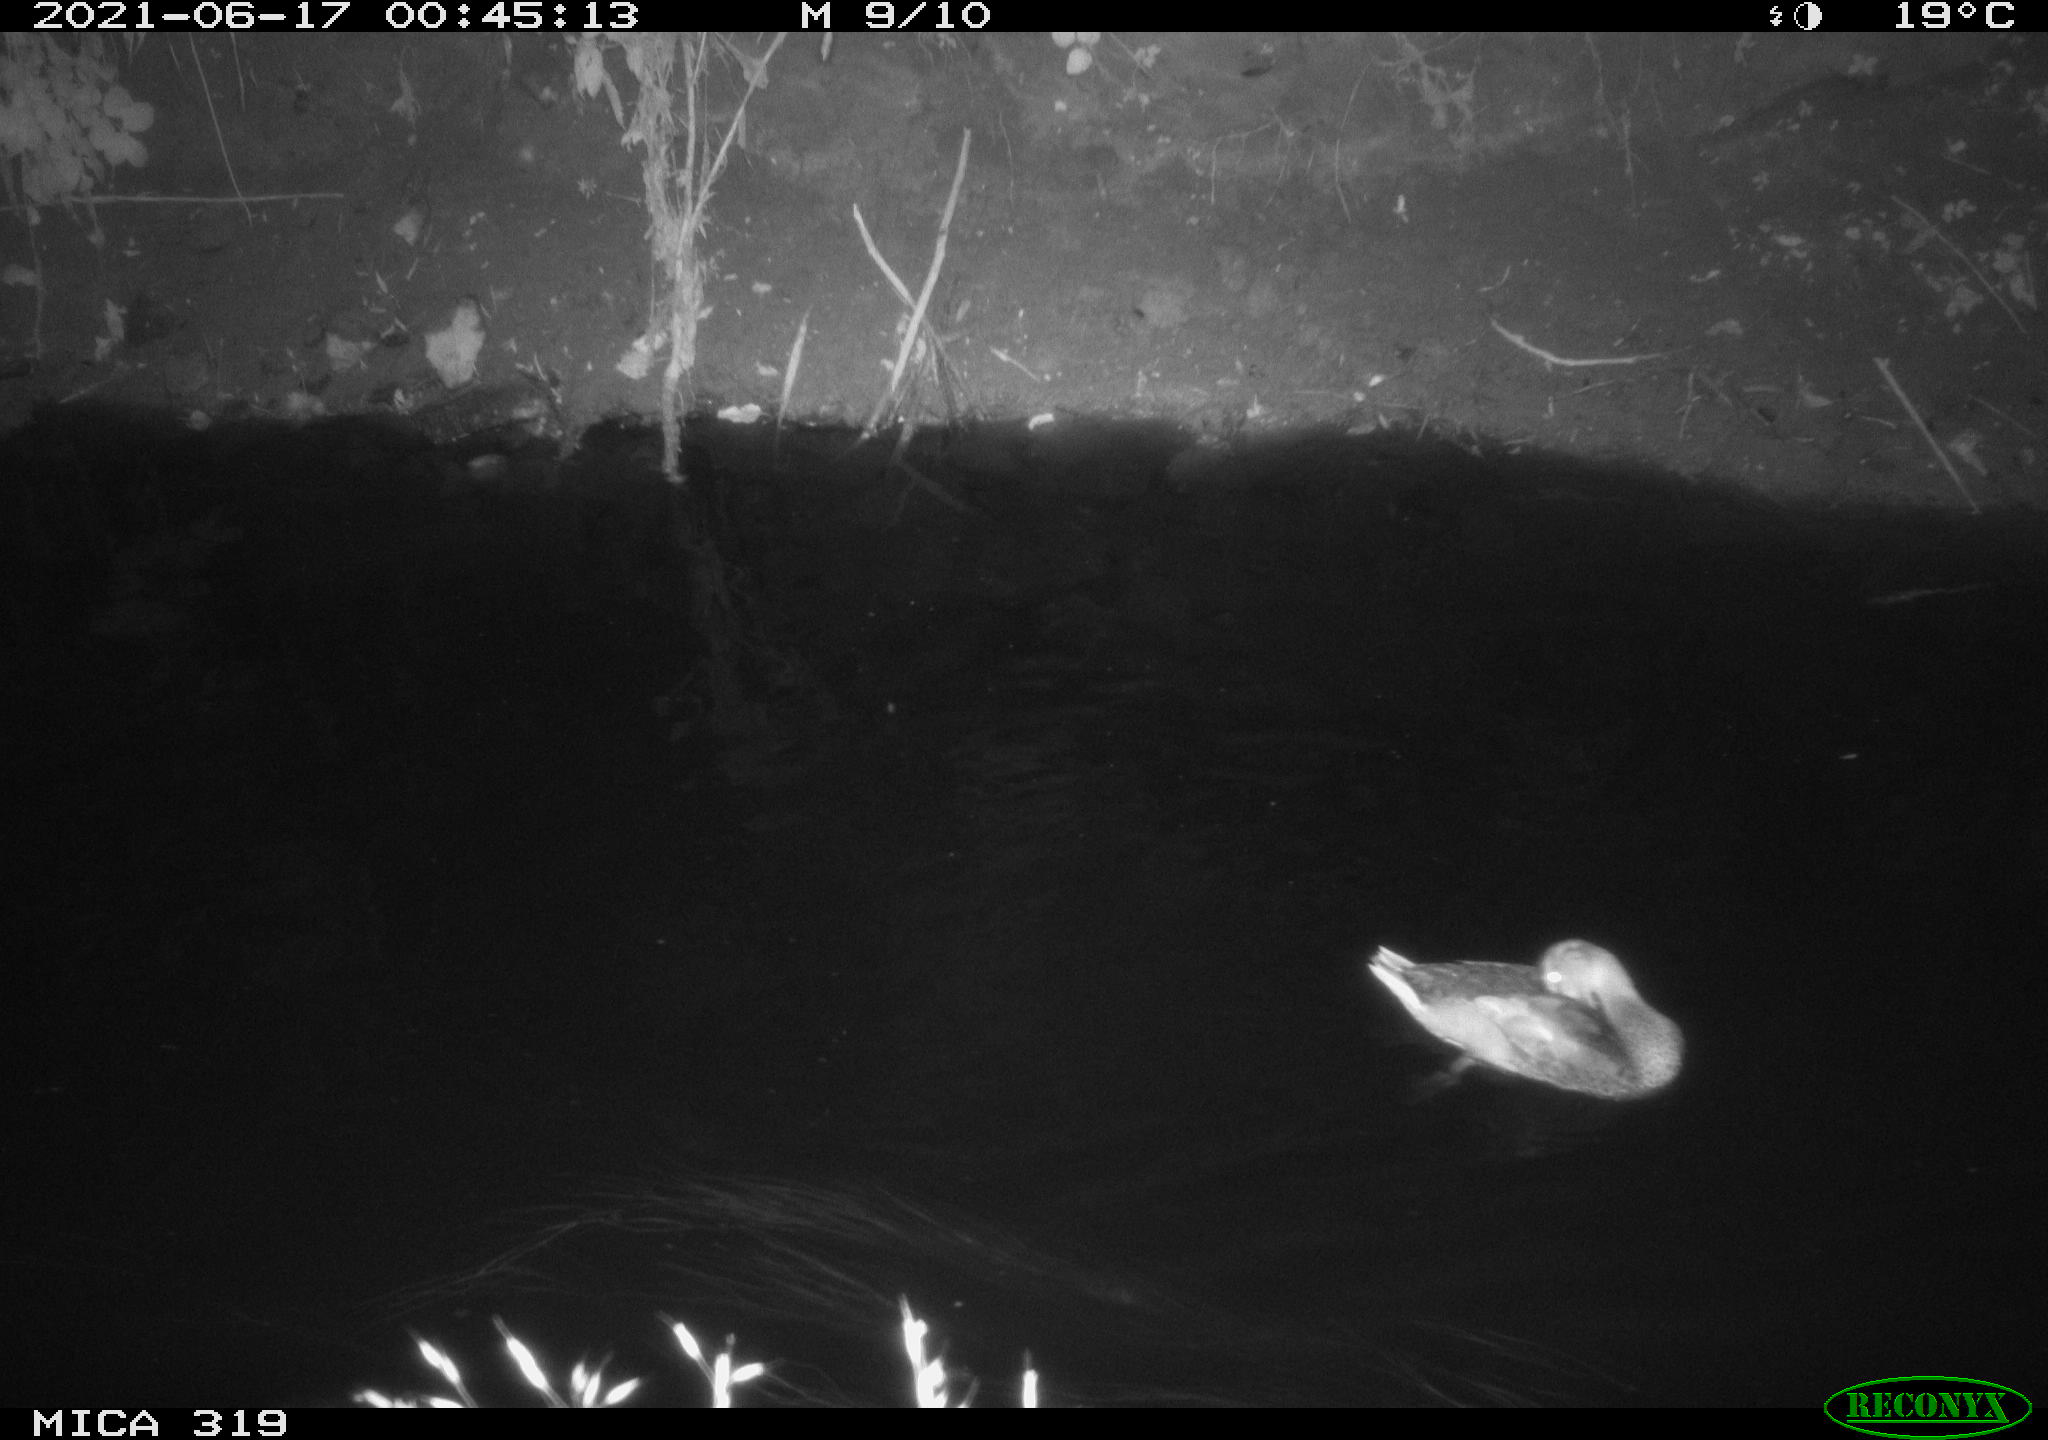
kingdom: Animalia
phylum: Chordata
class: Aves
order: Anseriformes
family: Anatidae
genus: Anas
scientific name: Anas platyrhynchos
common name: Mallard
